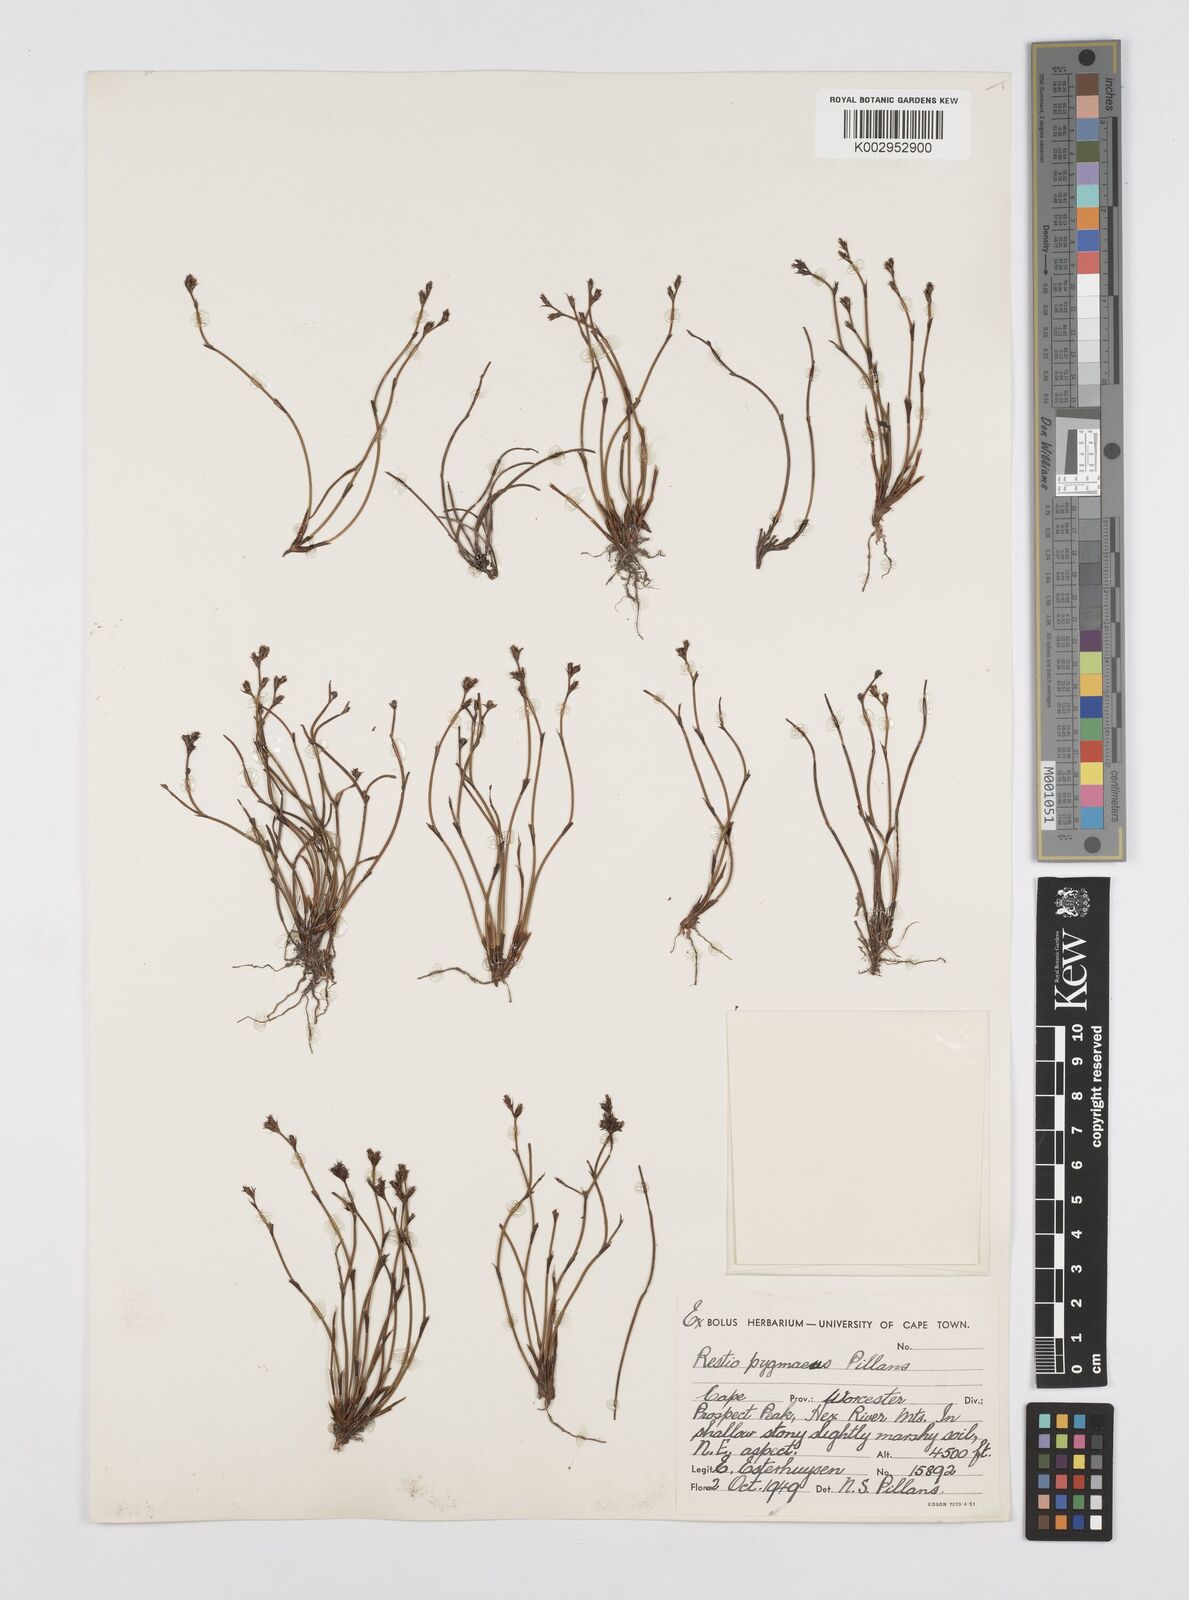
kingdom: Plantae
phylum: Tracheophyta
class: Liliopsida
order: Poales
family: Restionaceae
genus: Restio
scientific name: Restio pygmaeus
